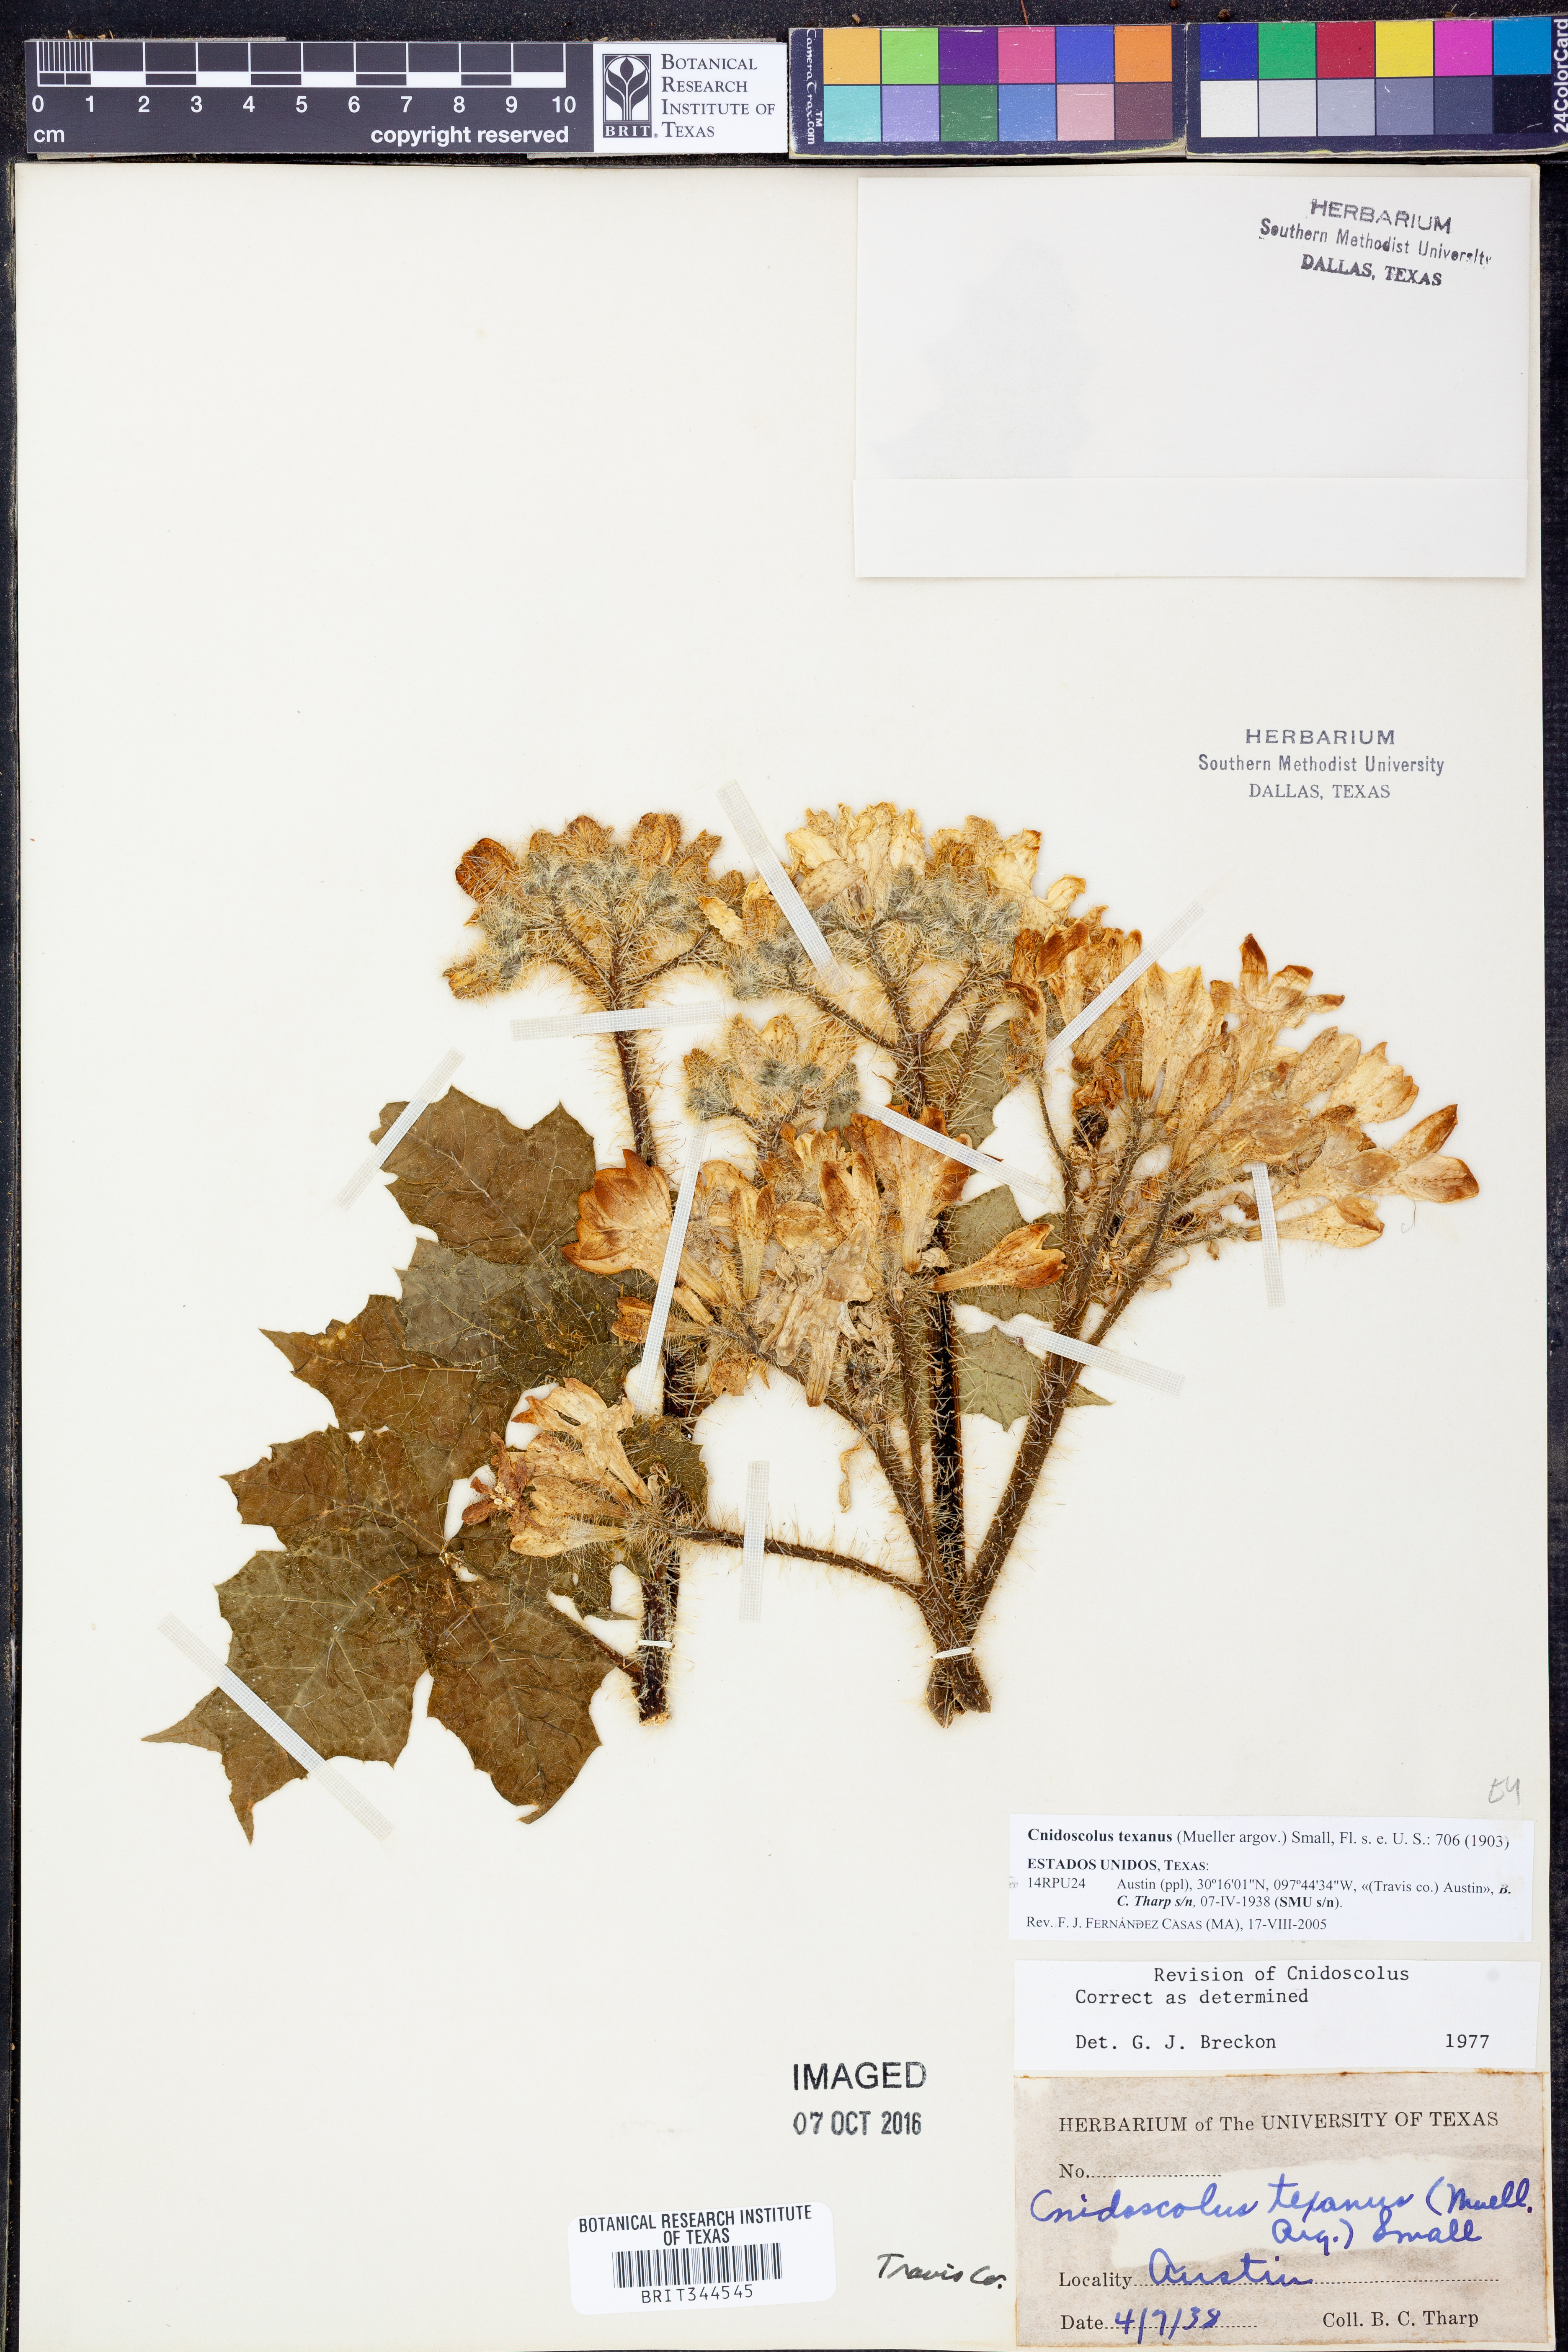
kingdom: Plantae
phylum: Tracheophyta
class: Magnoliopsida
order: Malpighiales
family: Euphorbiaceae
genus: Cnidoscolus
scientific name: Cnidoscolus texanus
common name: Texas bull-nettle
